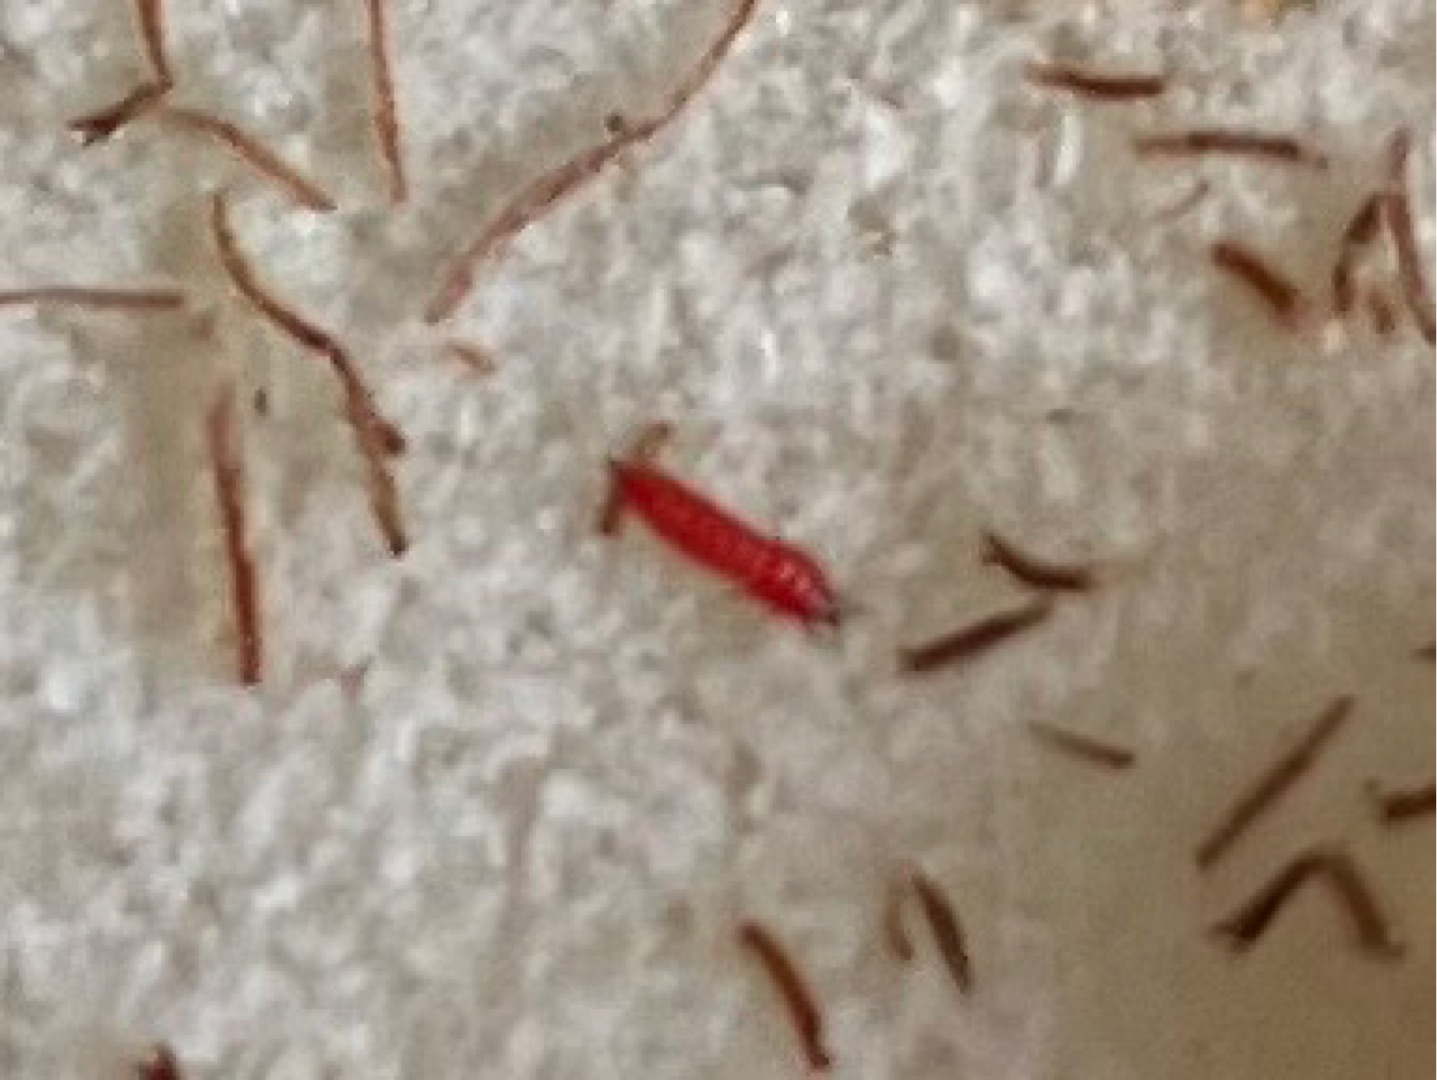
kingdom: Plantae
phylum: Tracheophyta
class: Magnoliopsida
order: Lamiales
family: Plantaginaceae
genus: Plantago
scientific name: Plantago lanceolata
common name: Lancet-vejbred
